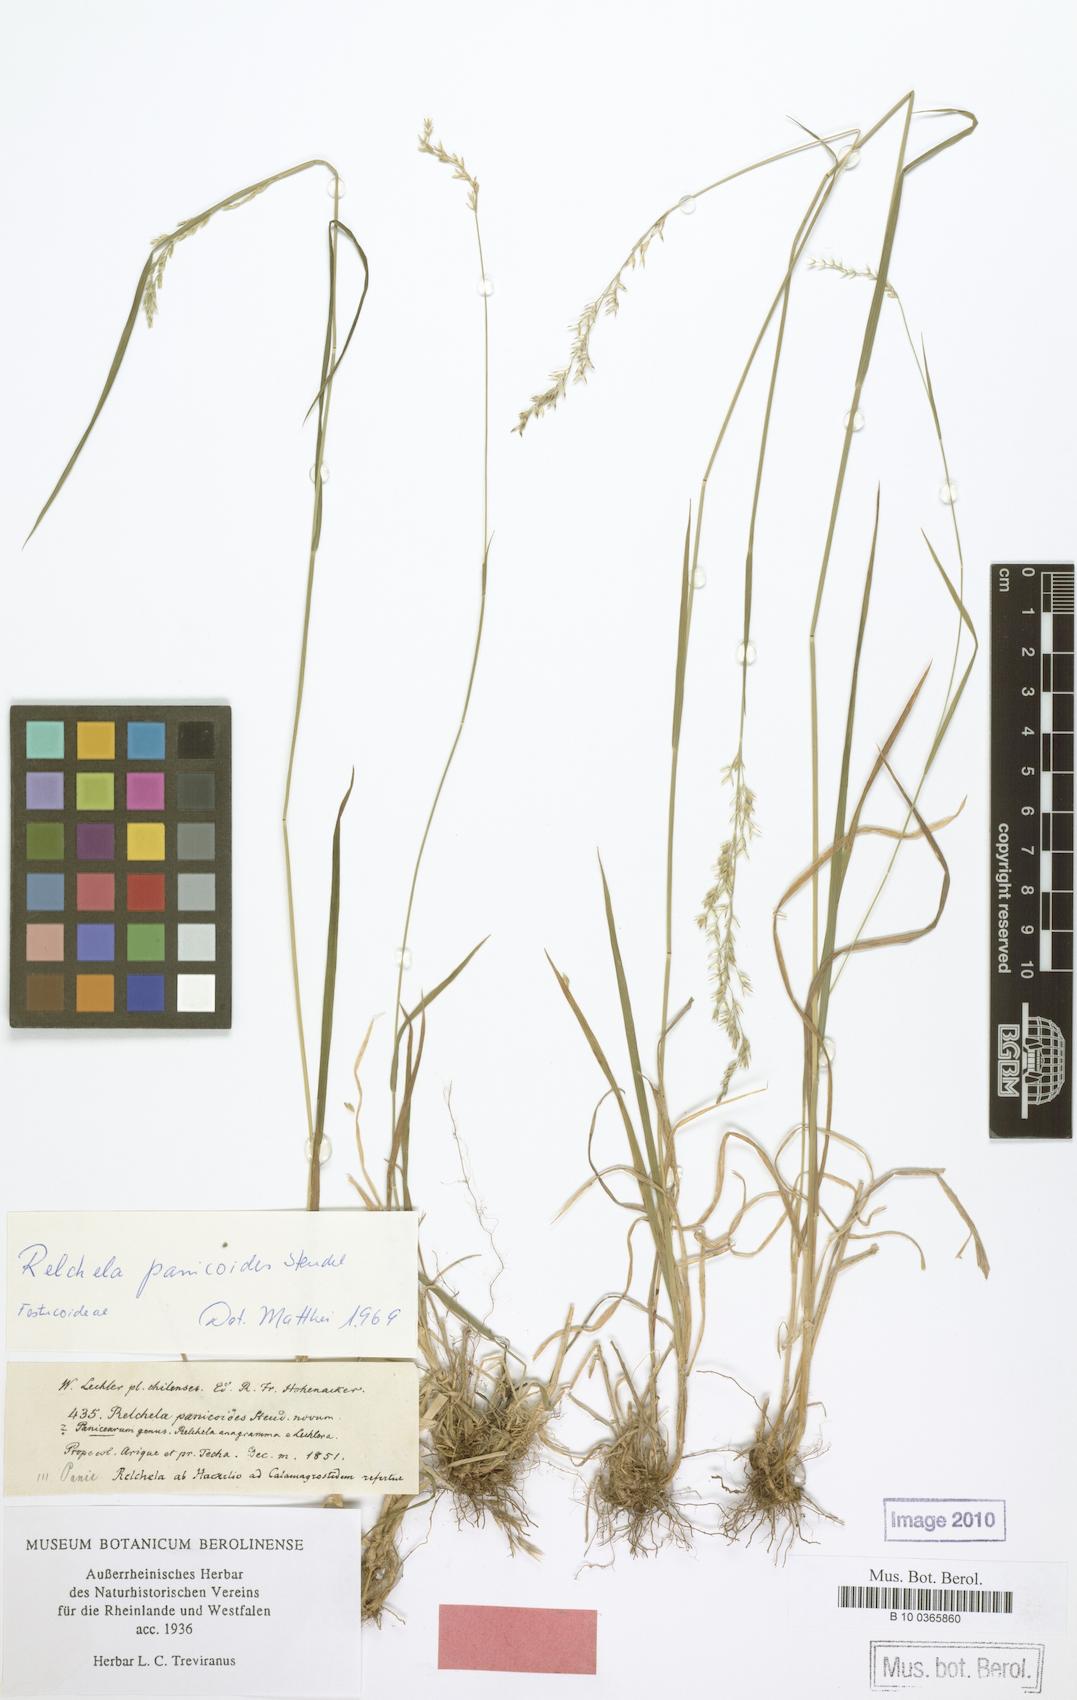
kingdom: Plantae
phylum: Tracheophyta
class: Liliopsida
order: Poales
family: Poaceae
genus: Relchela
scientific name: Relchela panicoides
